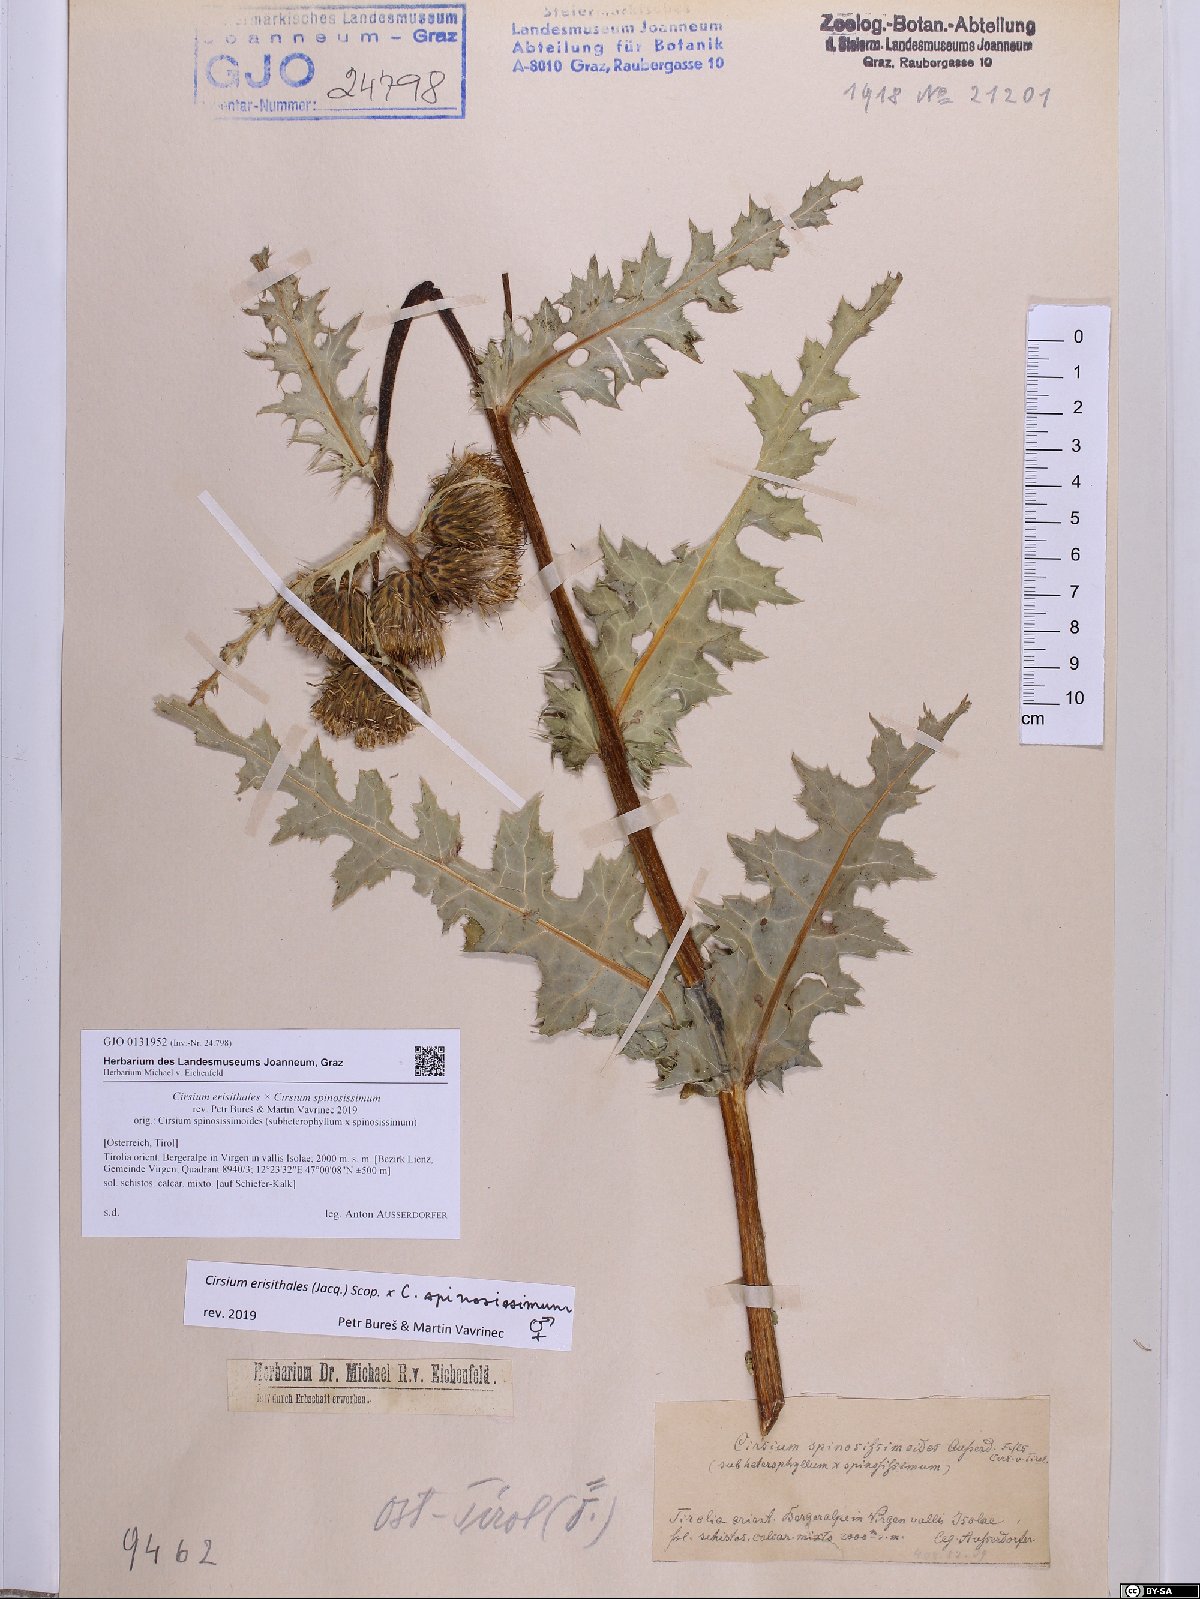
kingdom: Plantae
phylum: Tracheophyta
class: Magnoliopsida
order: Asterales
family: Asteraceae
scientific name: Asteraceae
